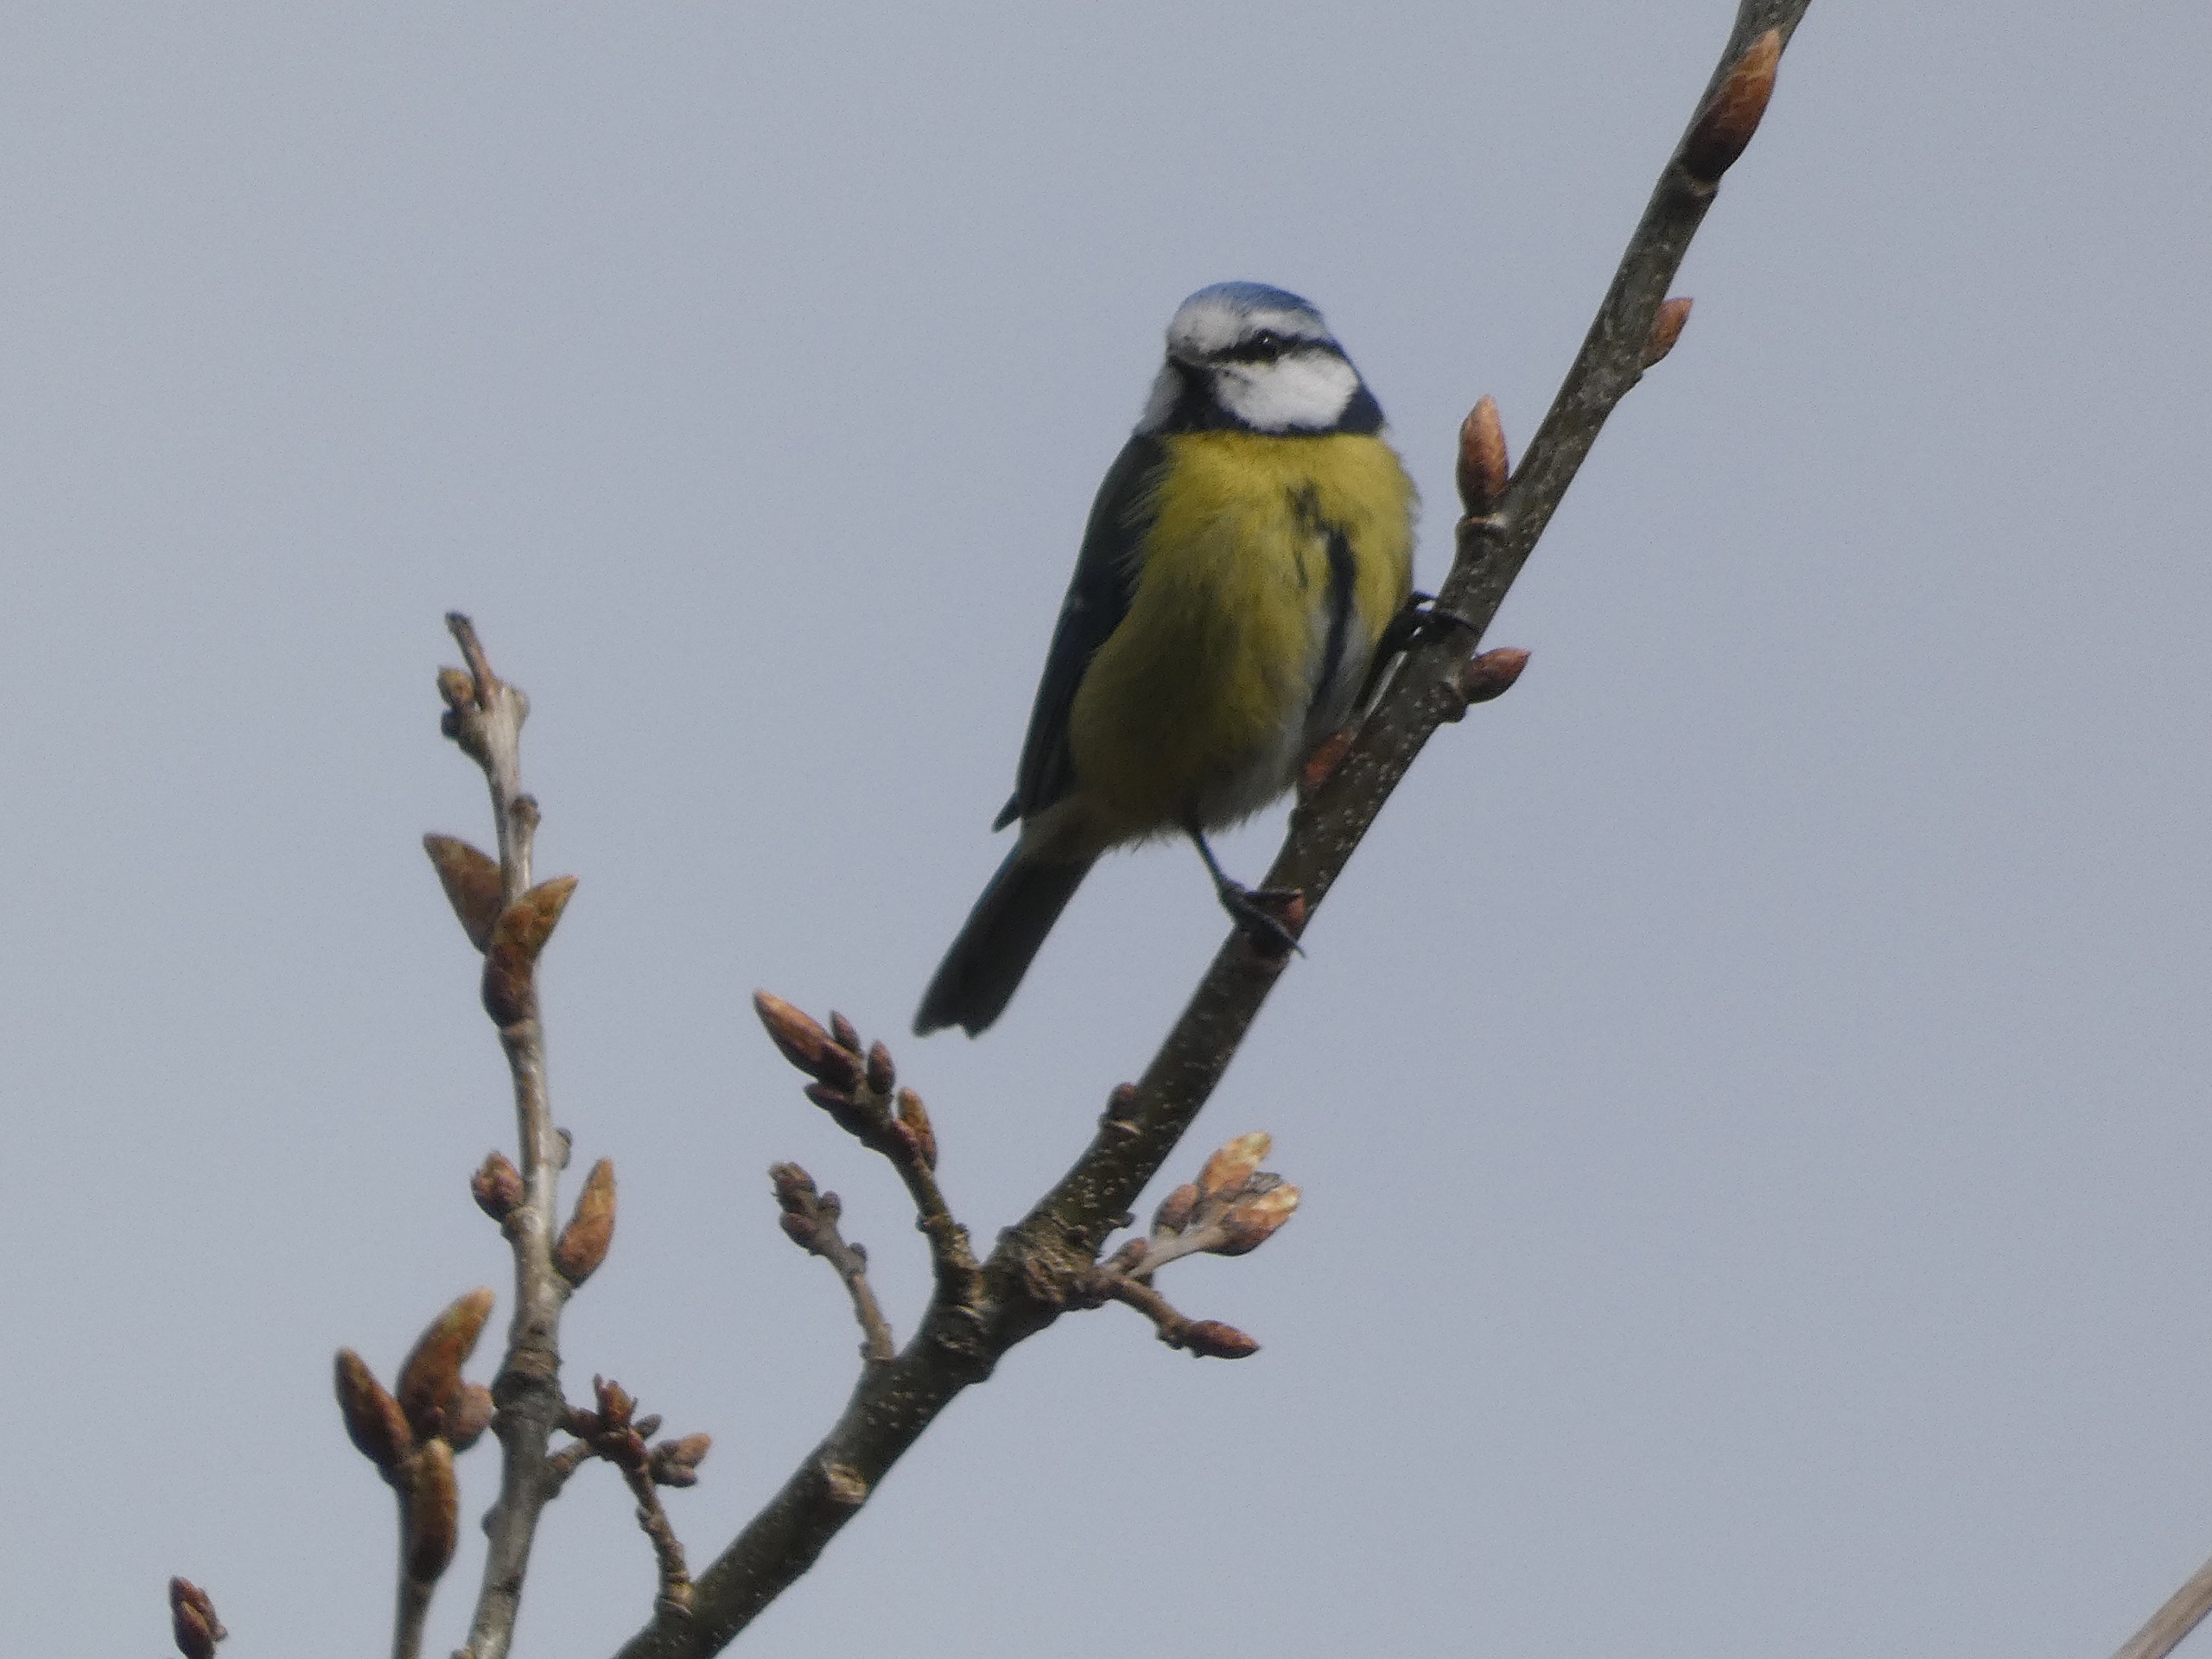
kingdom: Animalia
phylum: Chordata
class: Aves
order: Passeriformes
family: Paridae
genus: Cyanistes
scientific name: Cyanistes caeruleus
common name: Blåmejse
